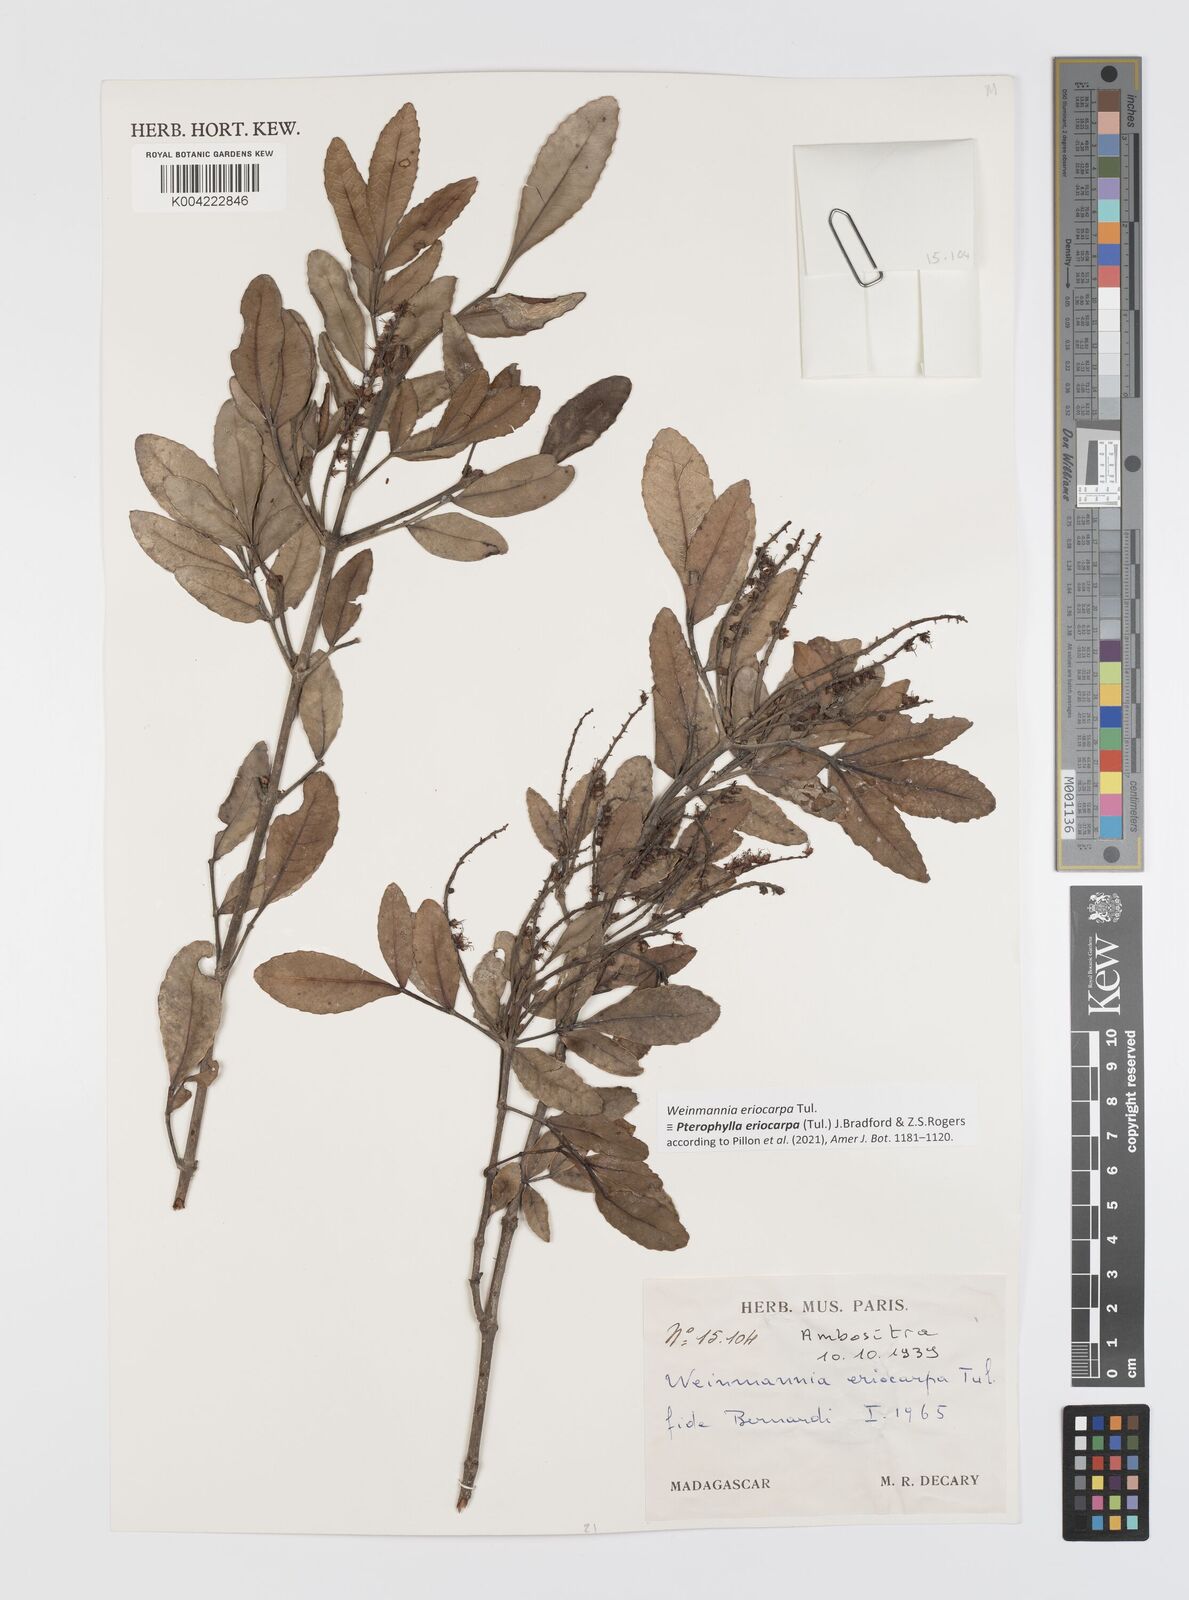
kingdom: Plantae
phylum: Tracheophyta
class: Magnoliopsida
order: Oxalidales
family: Cunoniaceae
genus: Pterophylla
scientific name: Pterophylla eriocarpa
